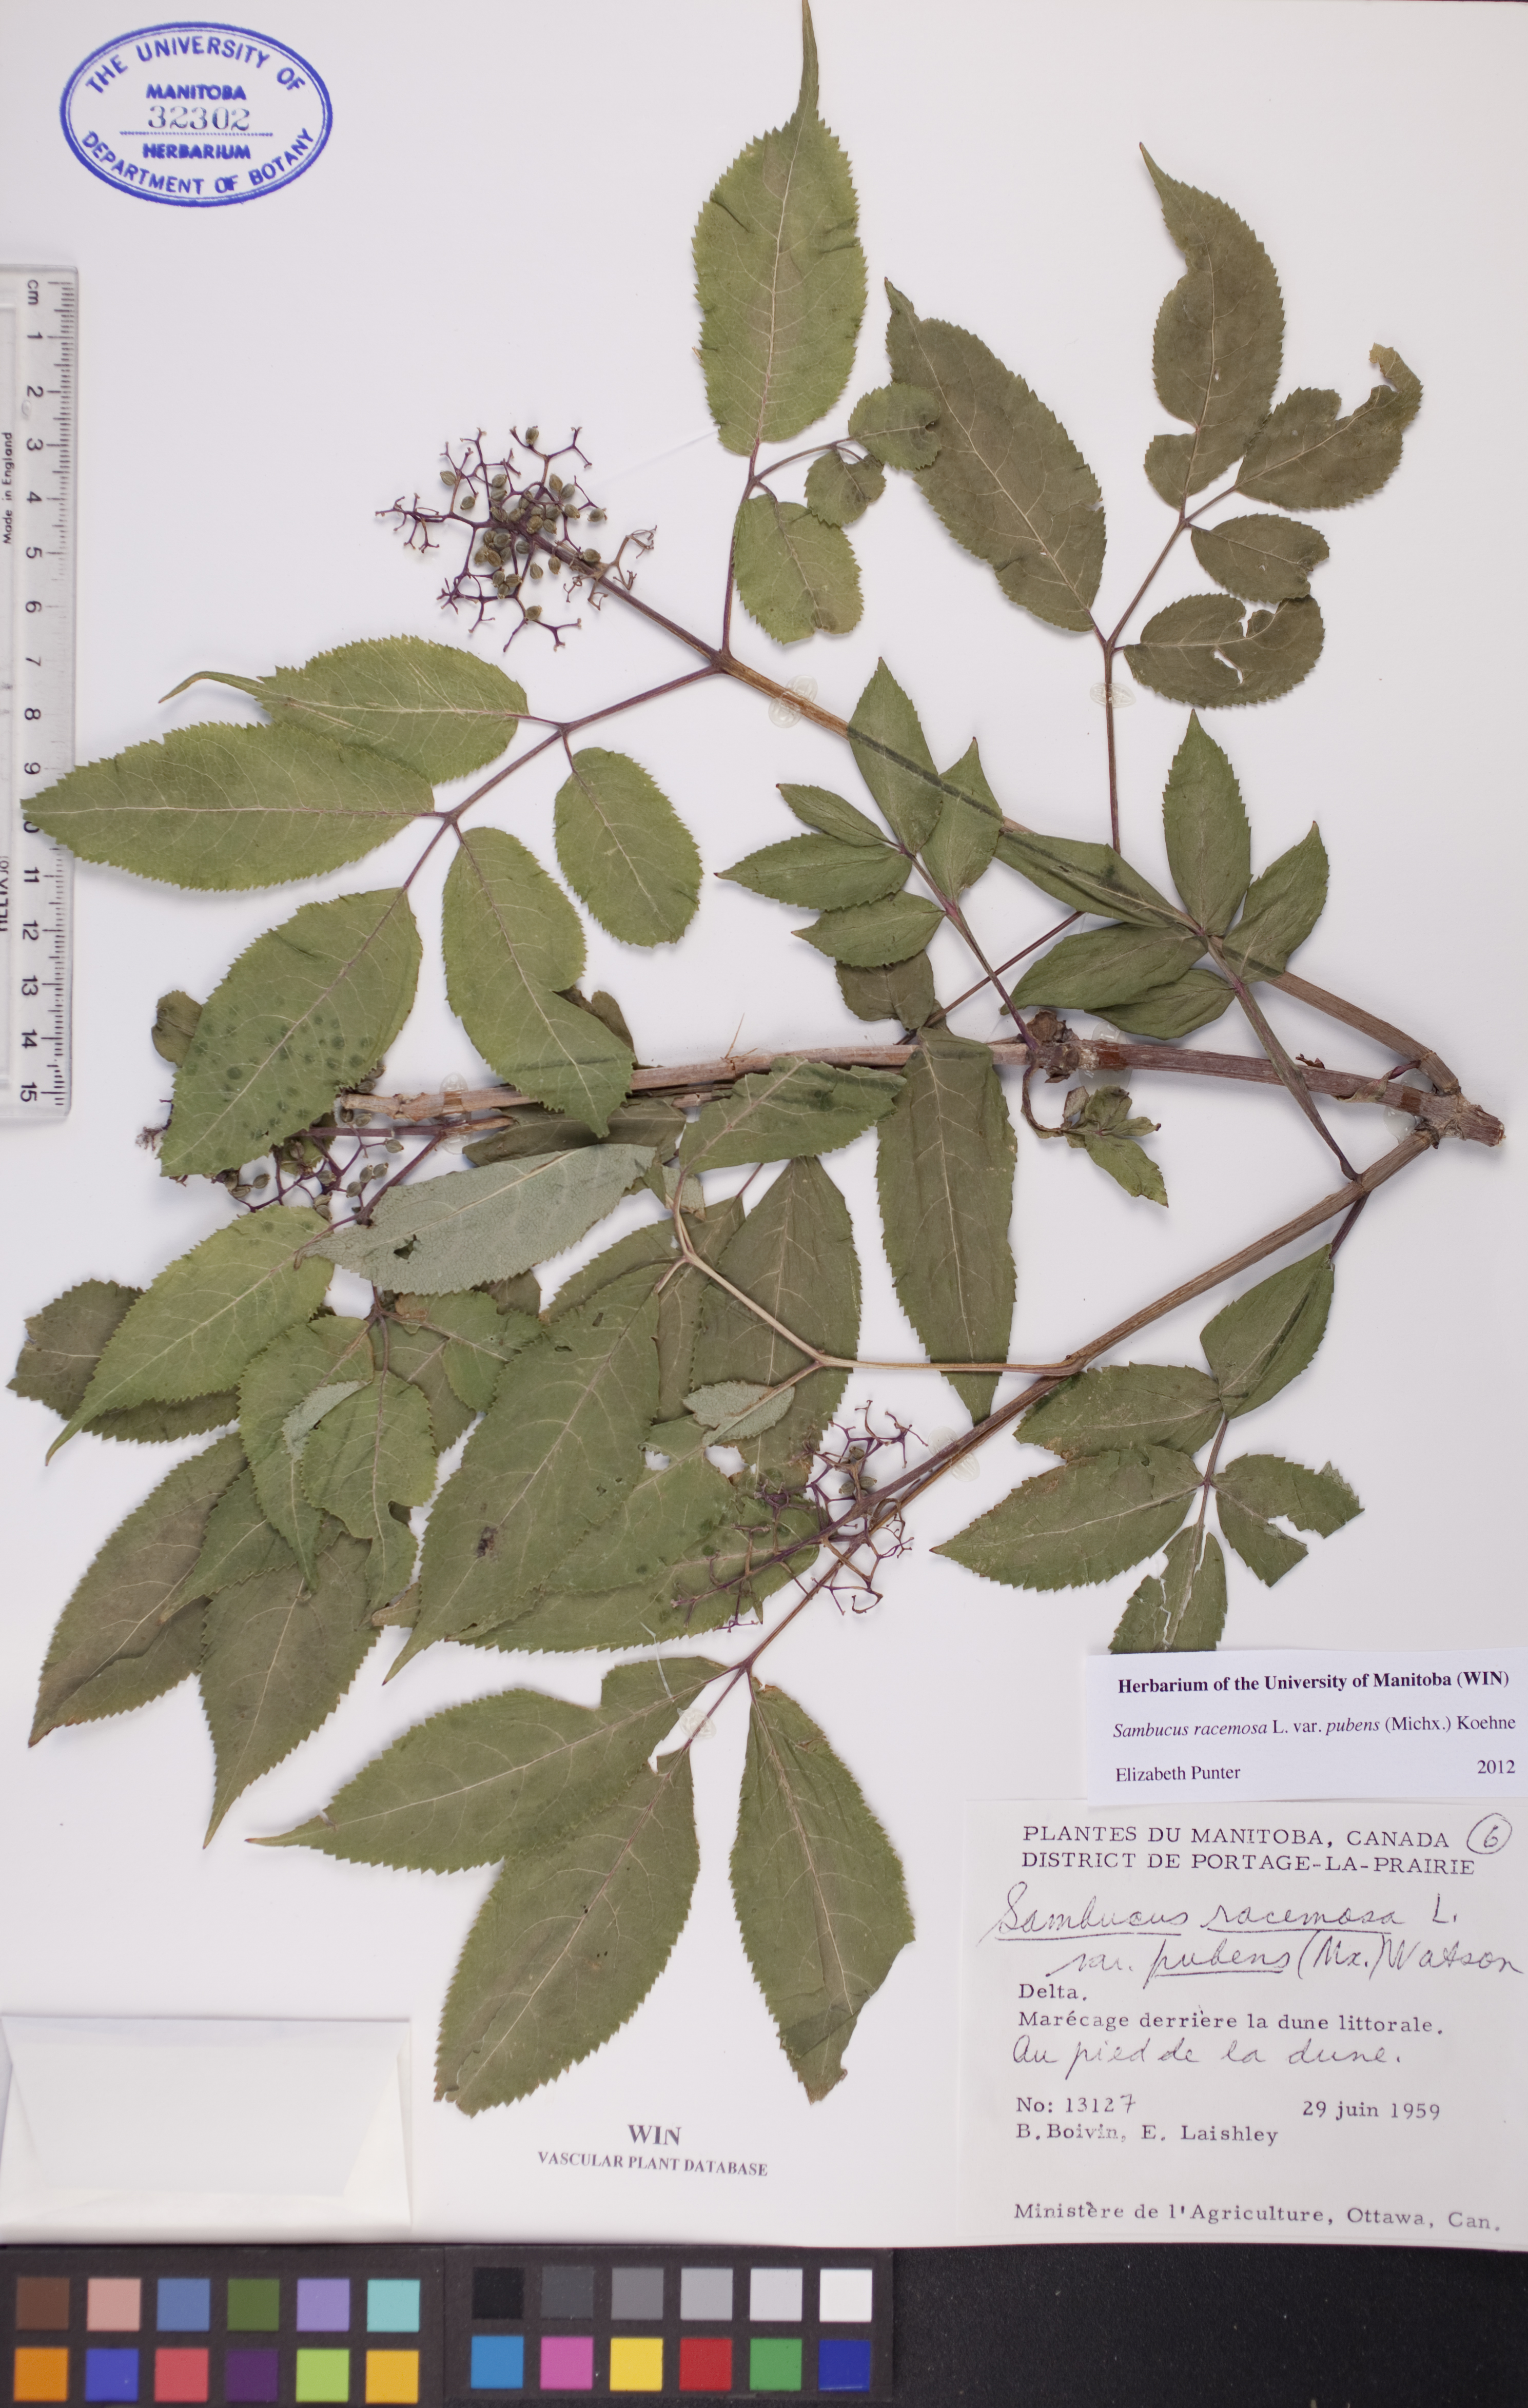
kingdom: Plantae
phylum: Tracheophyta
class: Magnoliopsida
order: Dipsacales
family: Viburnaceae
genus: Sambucus
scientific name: Sambucus racemosa
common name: Red-berried elder
